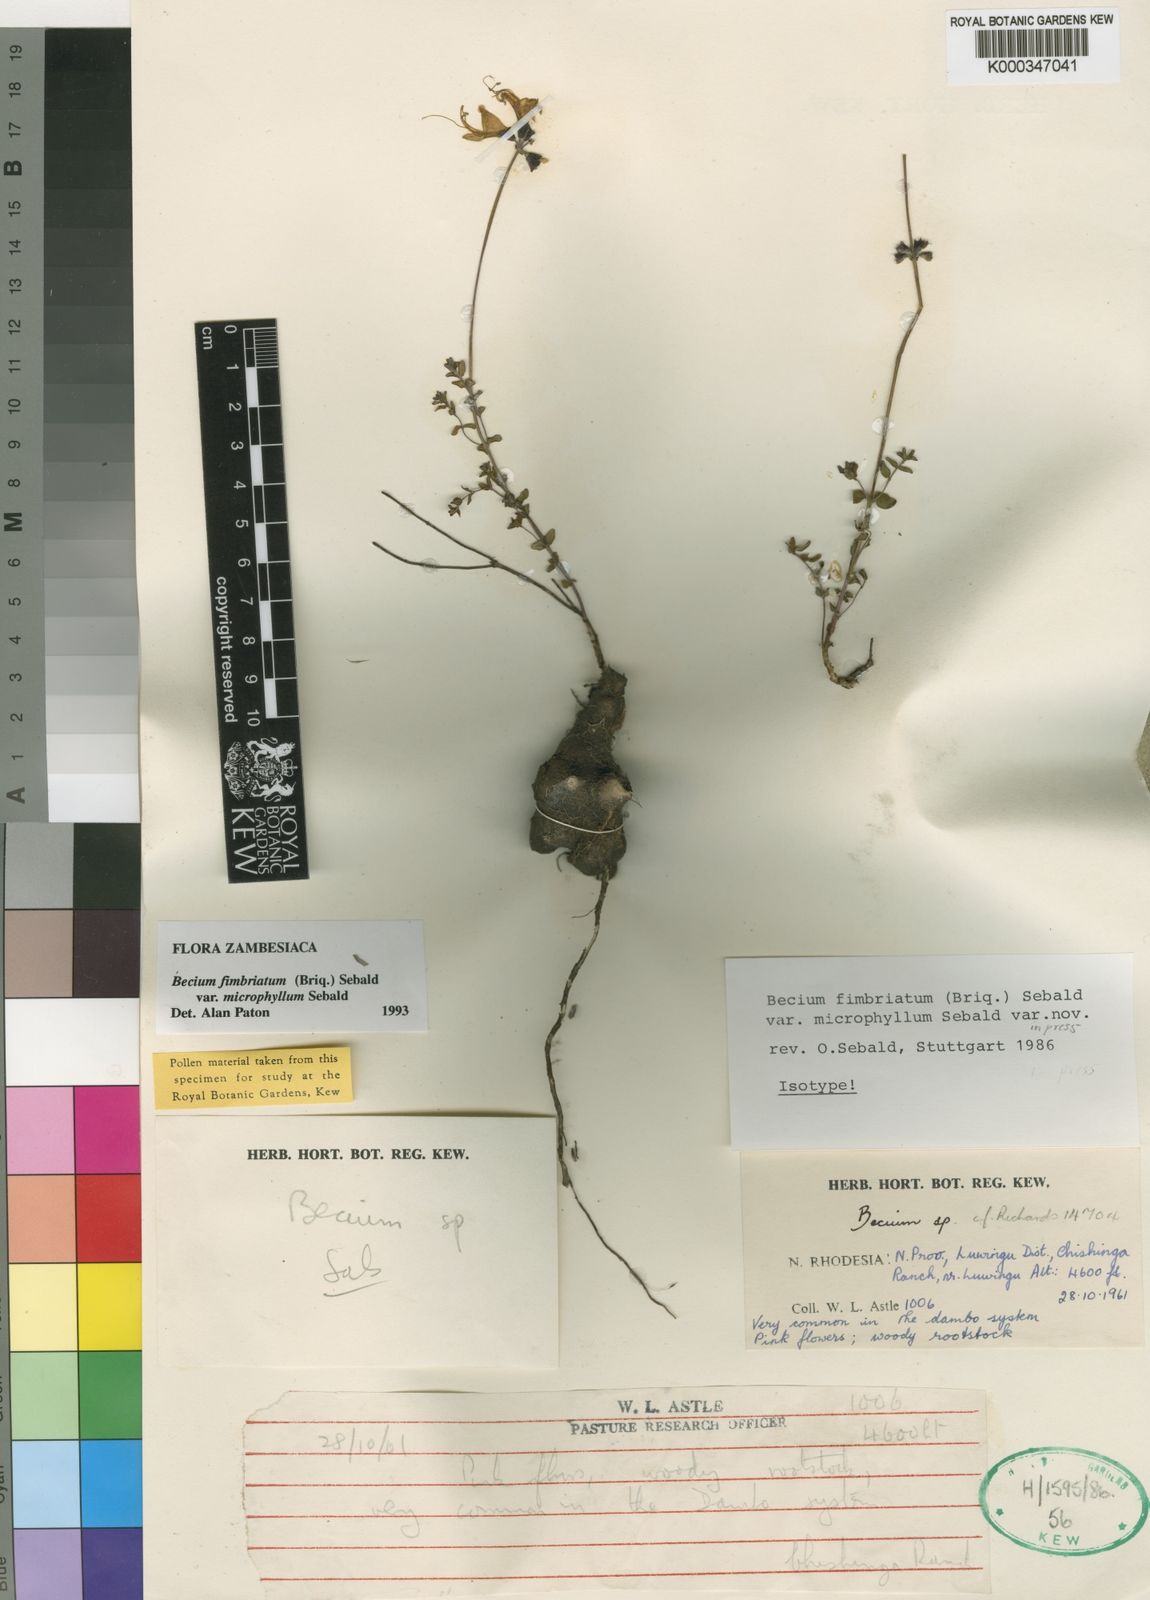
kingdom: Plantae
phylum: Tracheophyta
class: Magnoliopsida
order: Lamiales
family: Lamiaceae
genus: Ocimum
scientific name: Ocimum fimbriatum
